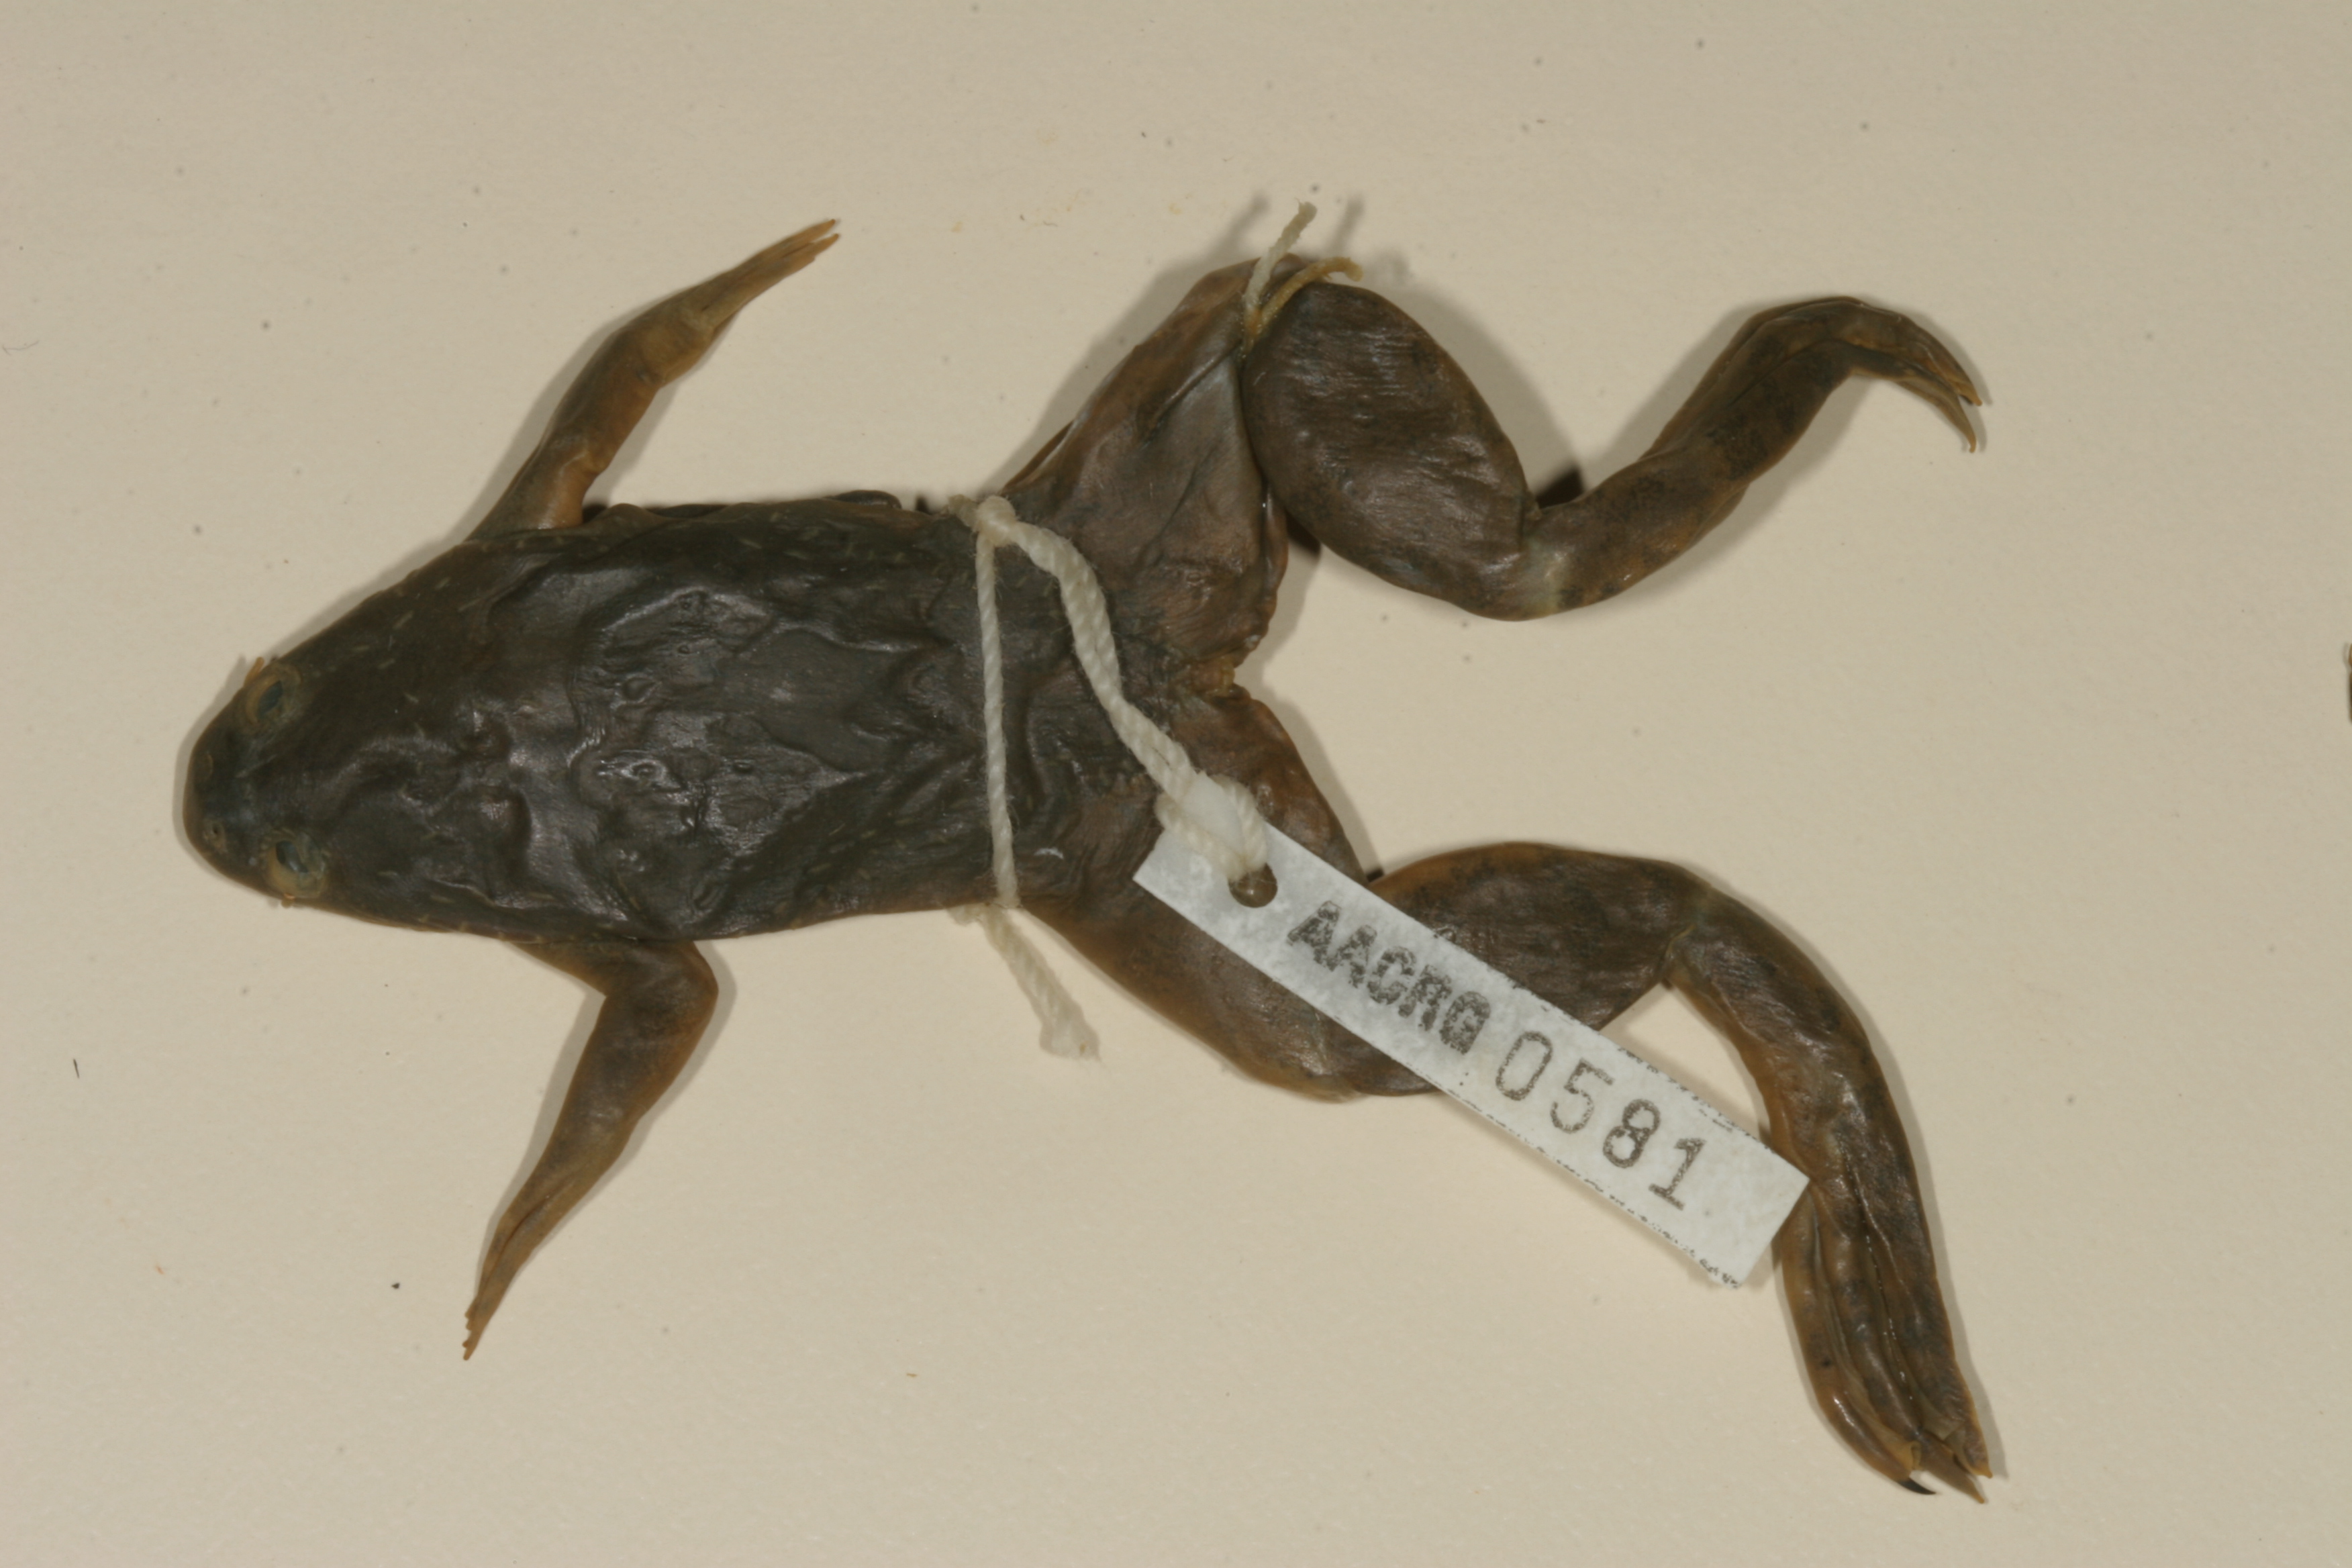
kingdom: Animalia
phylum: Chordata
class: Amphibia
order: Anura
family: Pipidae
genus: Xenopus
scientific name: Xenopus muelleri
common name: Muller's clawed frog
